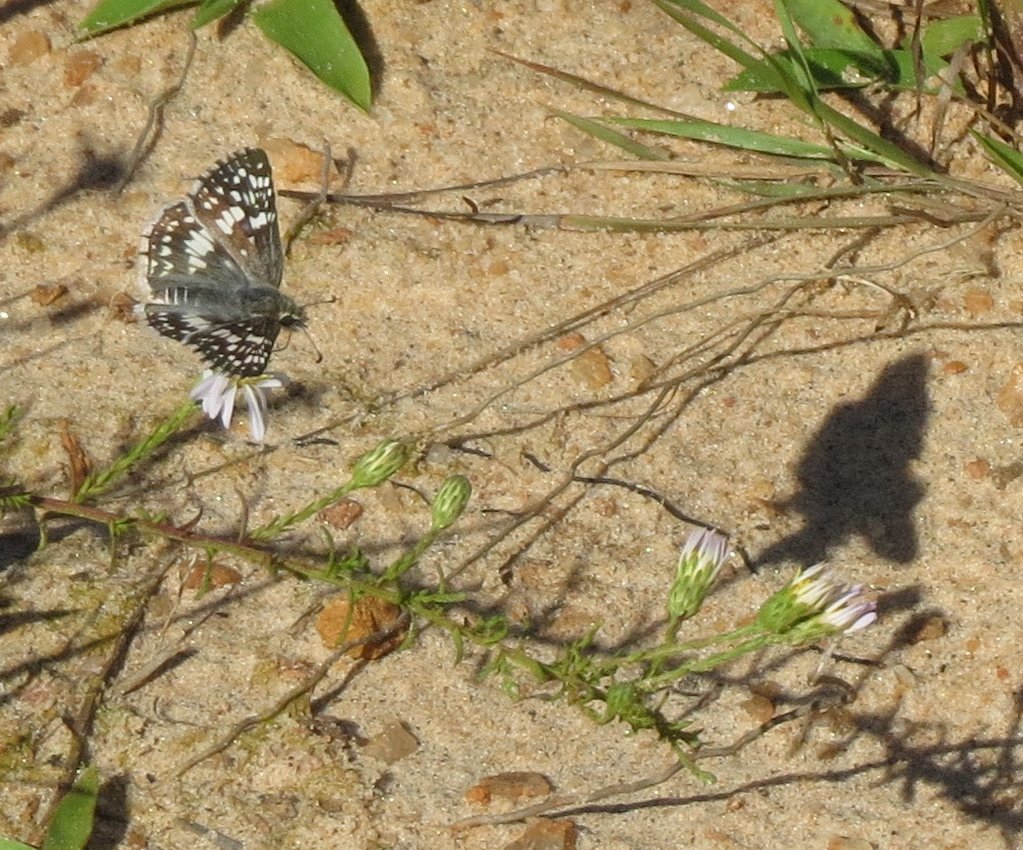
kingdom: Animalia
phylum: Arthropoda
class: Insecta
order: Lepidoptera
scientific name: Lepidoptera
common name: Butterflies
